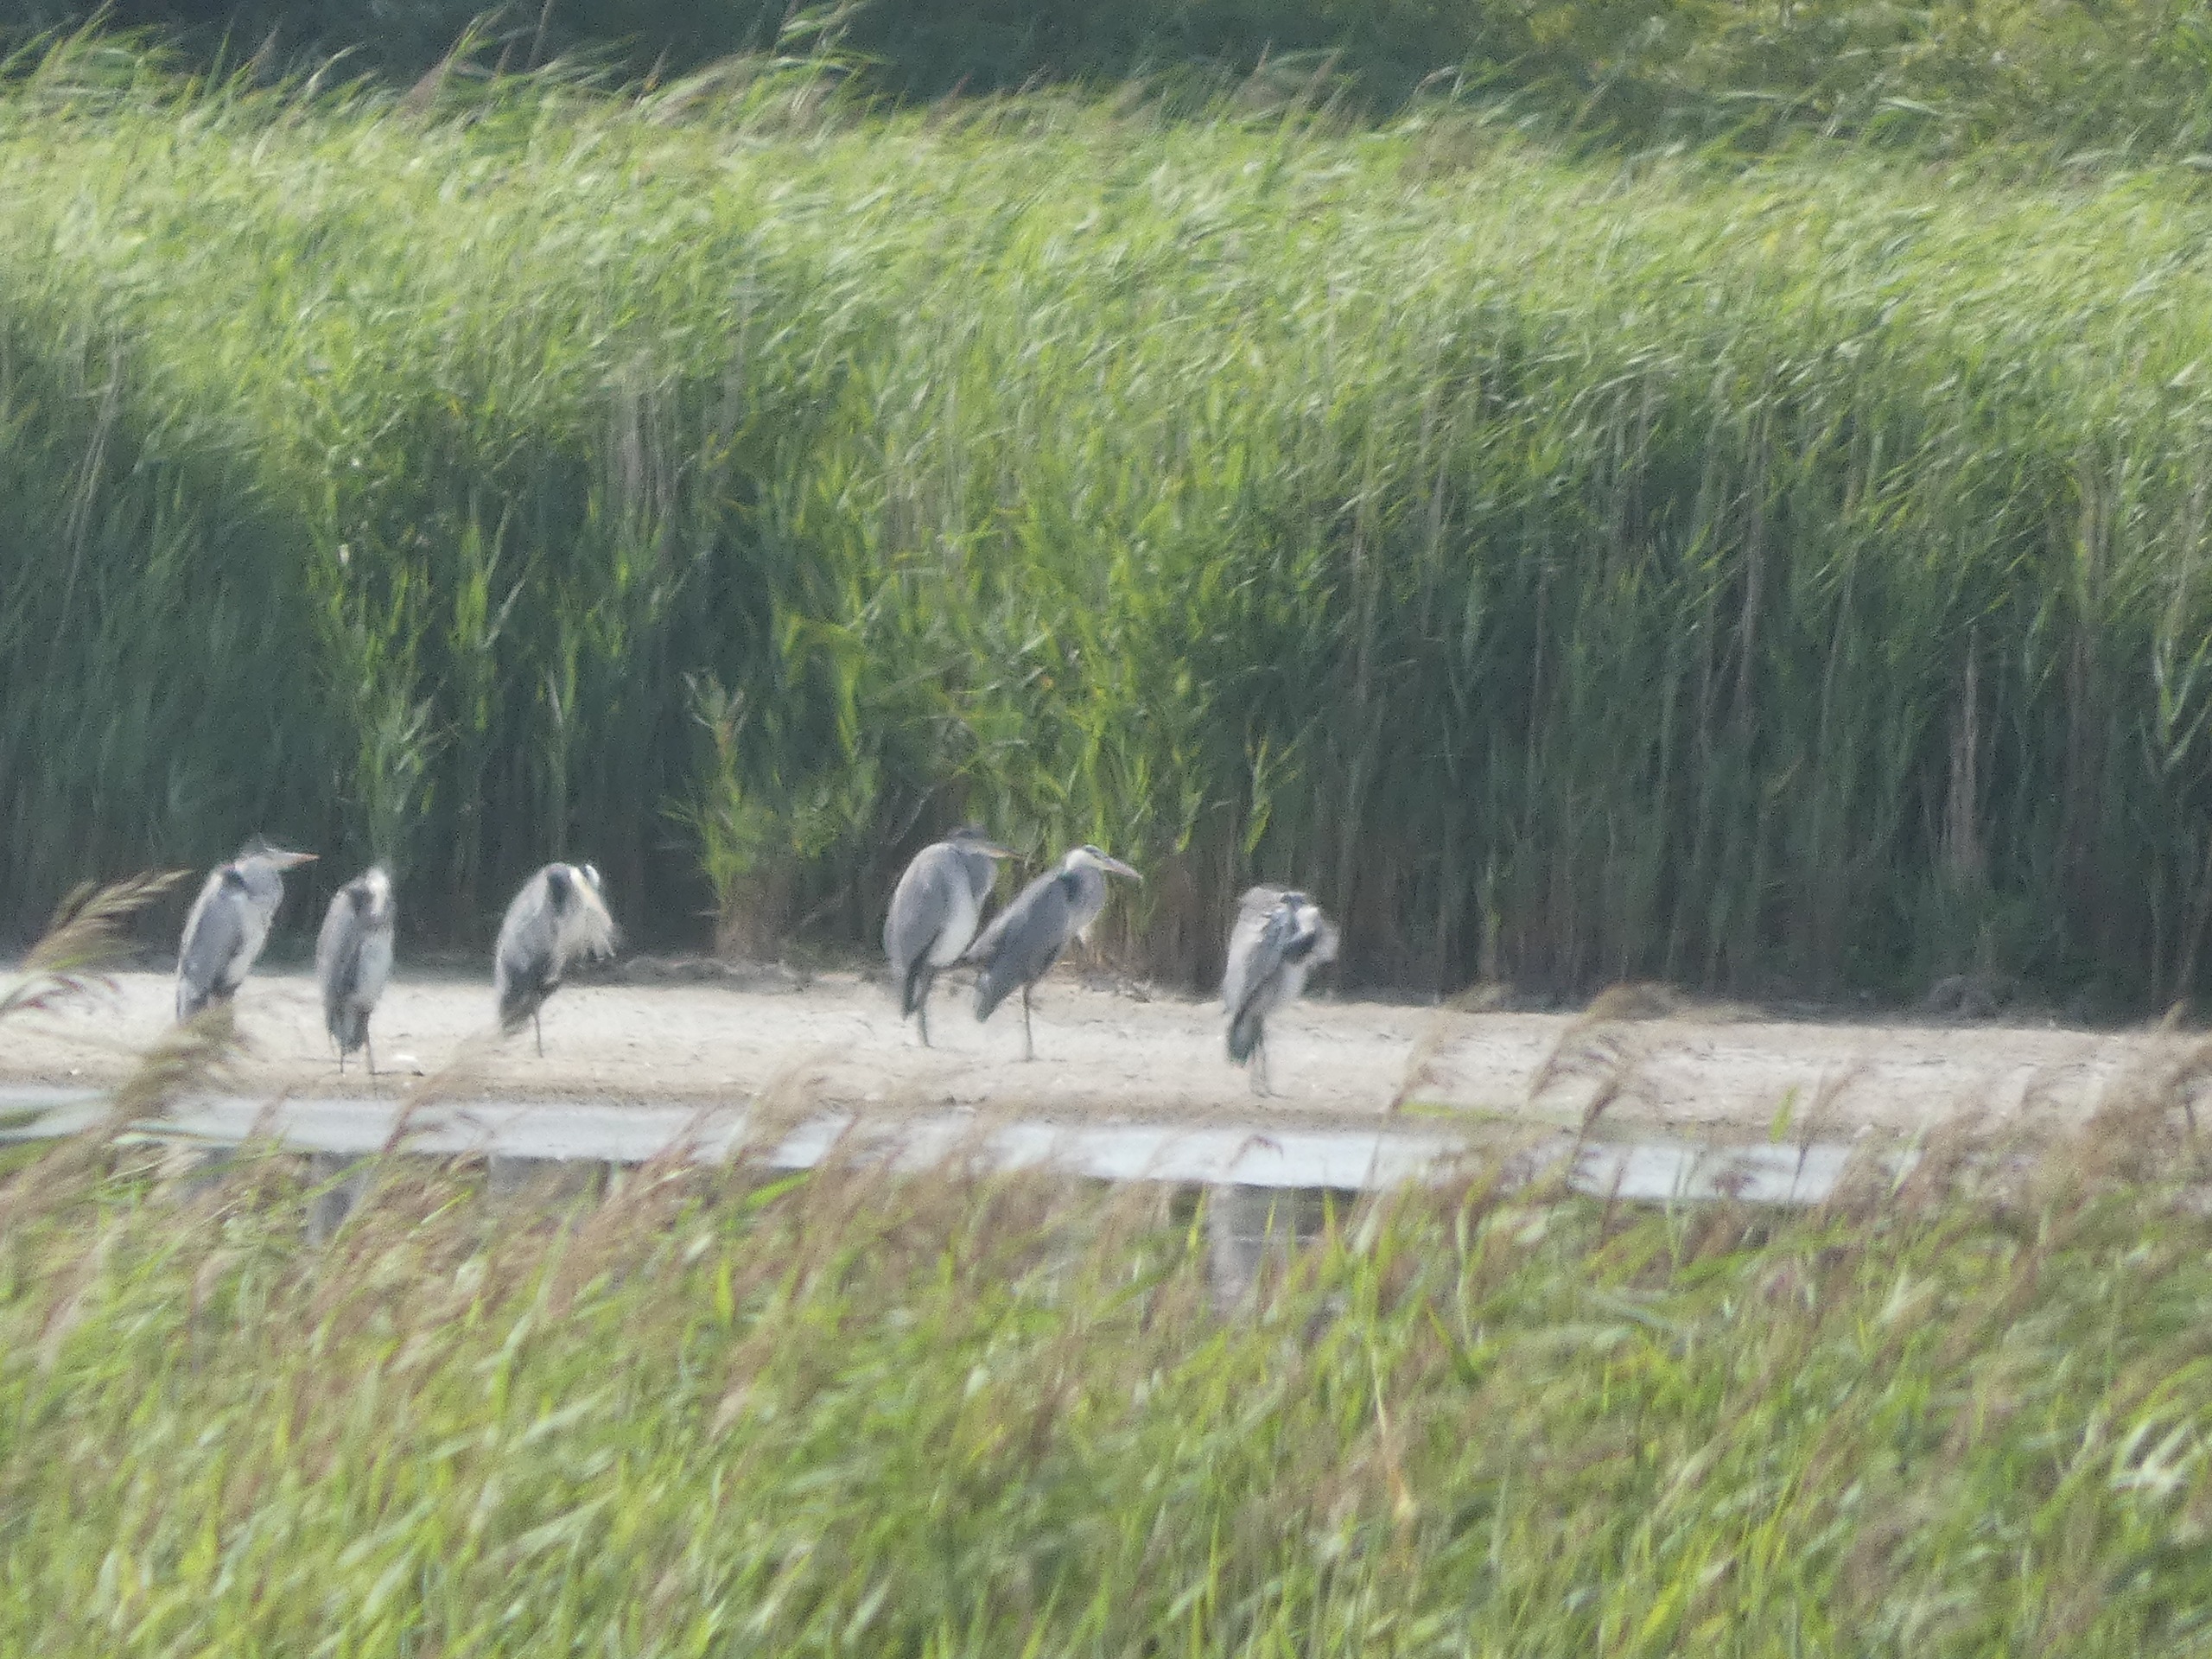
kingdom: Animalia
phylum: Chordata
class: Aves
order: Pelecaniformes
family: Ardeidae
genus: Ardea
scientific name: Ardea cinerea
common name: Fiskehejre
